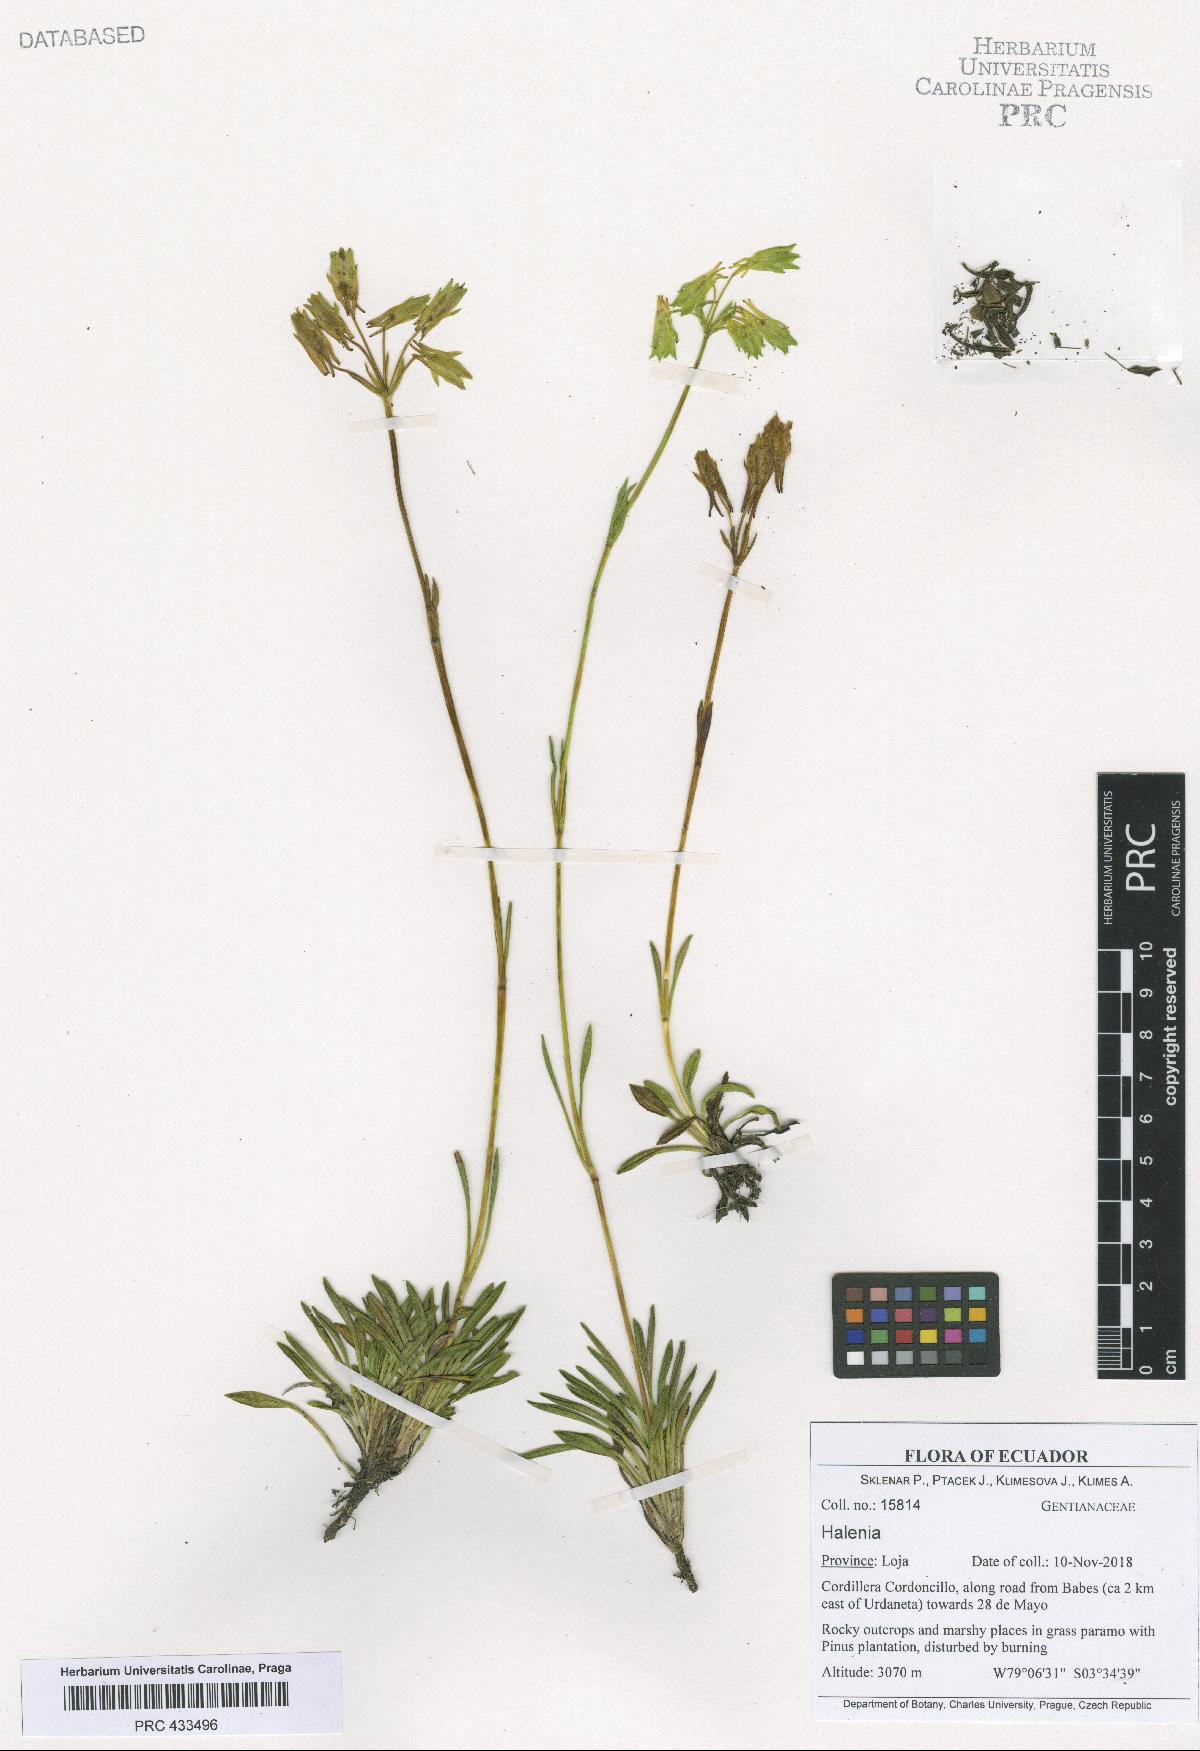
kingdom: Plantae
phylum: Tracheophyta
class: Magnoliopsida
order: Gentianales
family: Gentianaceae
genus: Halenia
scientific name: Halenia
